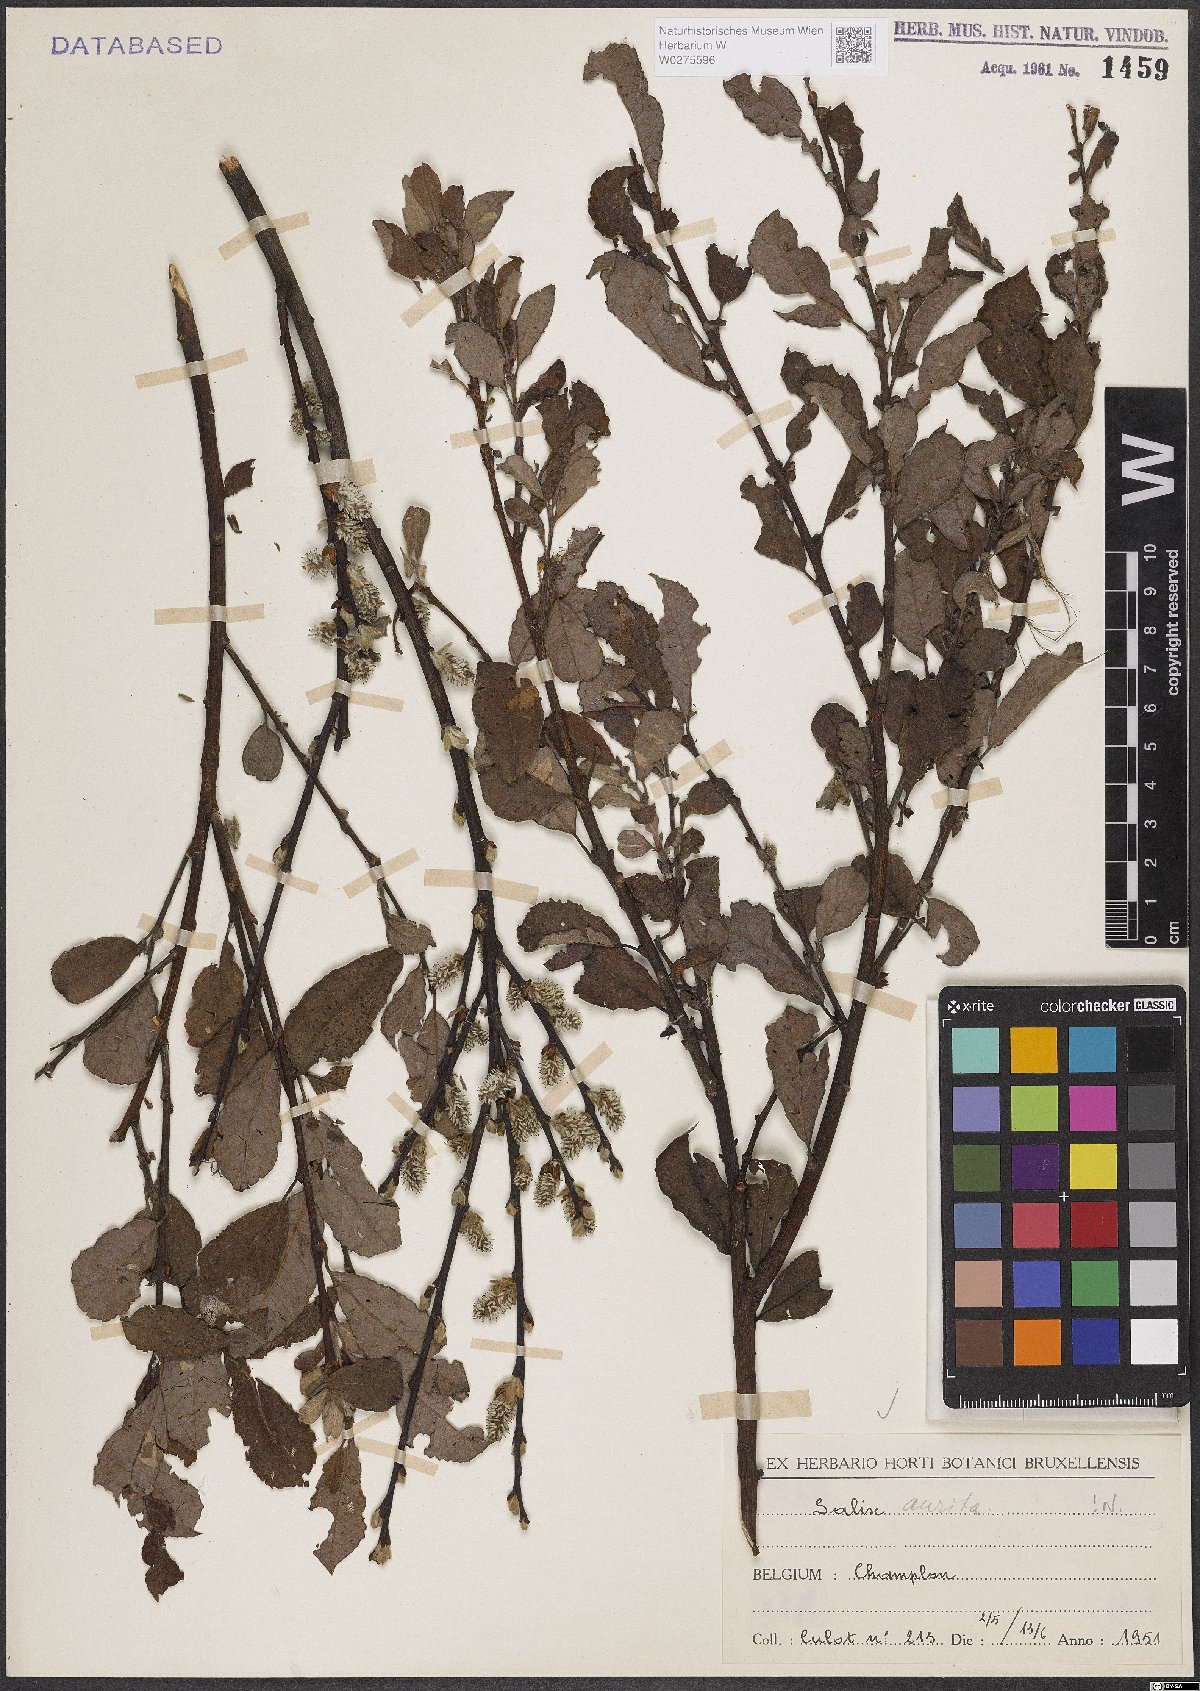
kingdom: Plantae
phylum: Tracheophyta
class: Magnoliopsida
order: Malpighiales
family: Salicaceae
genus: Salix
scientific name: Salix aurita
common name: Eared willow
